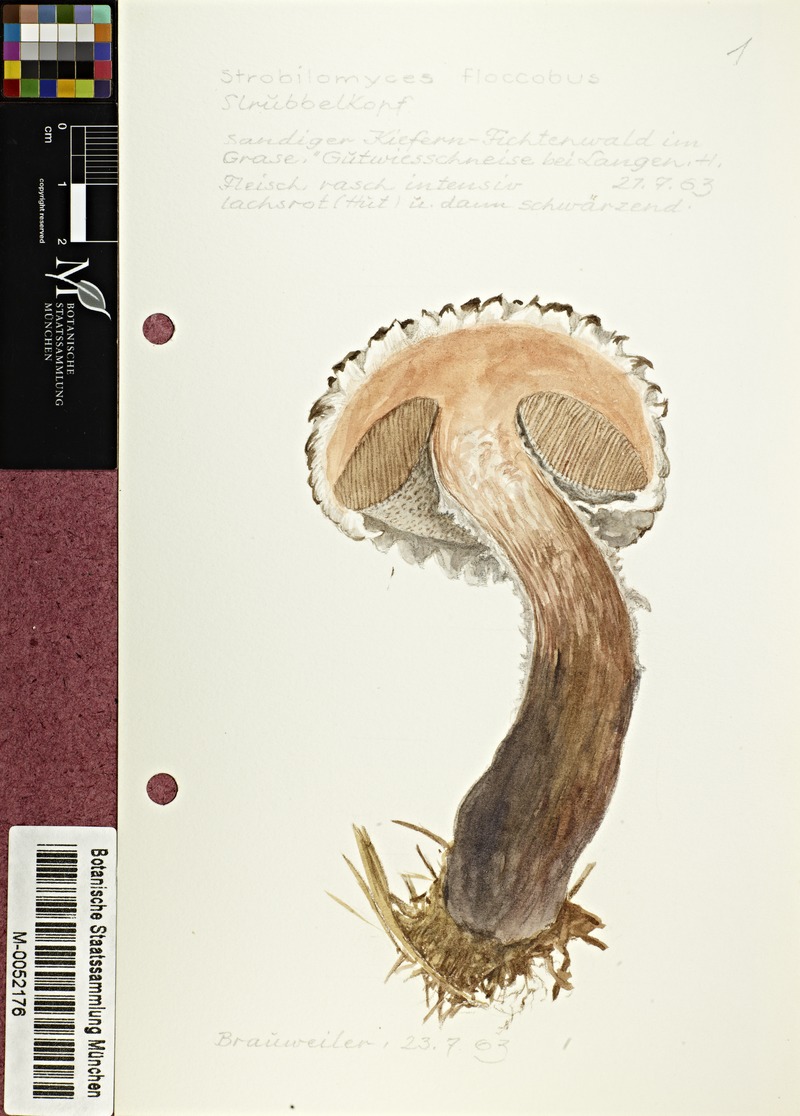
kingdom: Fungi
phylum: Basidiomycota
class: Agaricomycetes
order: Boletales
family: Boletaceae
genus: Strobilomyces
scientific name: Strobilomyces strobilaceus
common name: Old man of the woods
